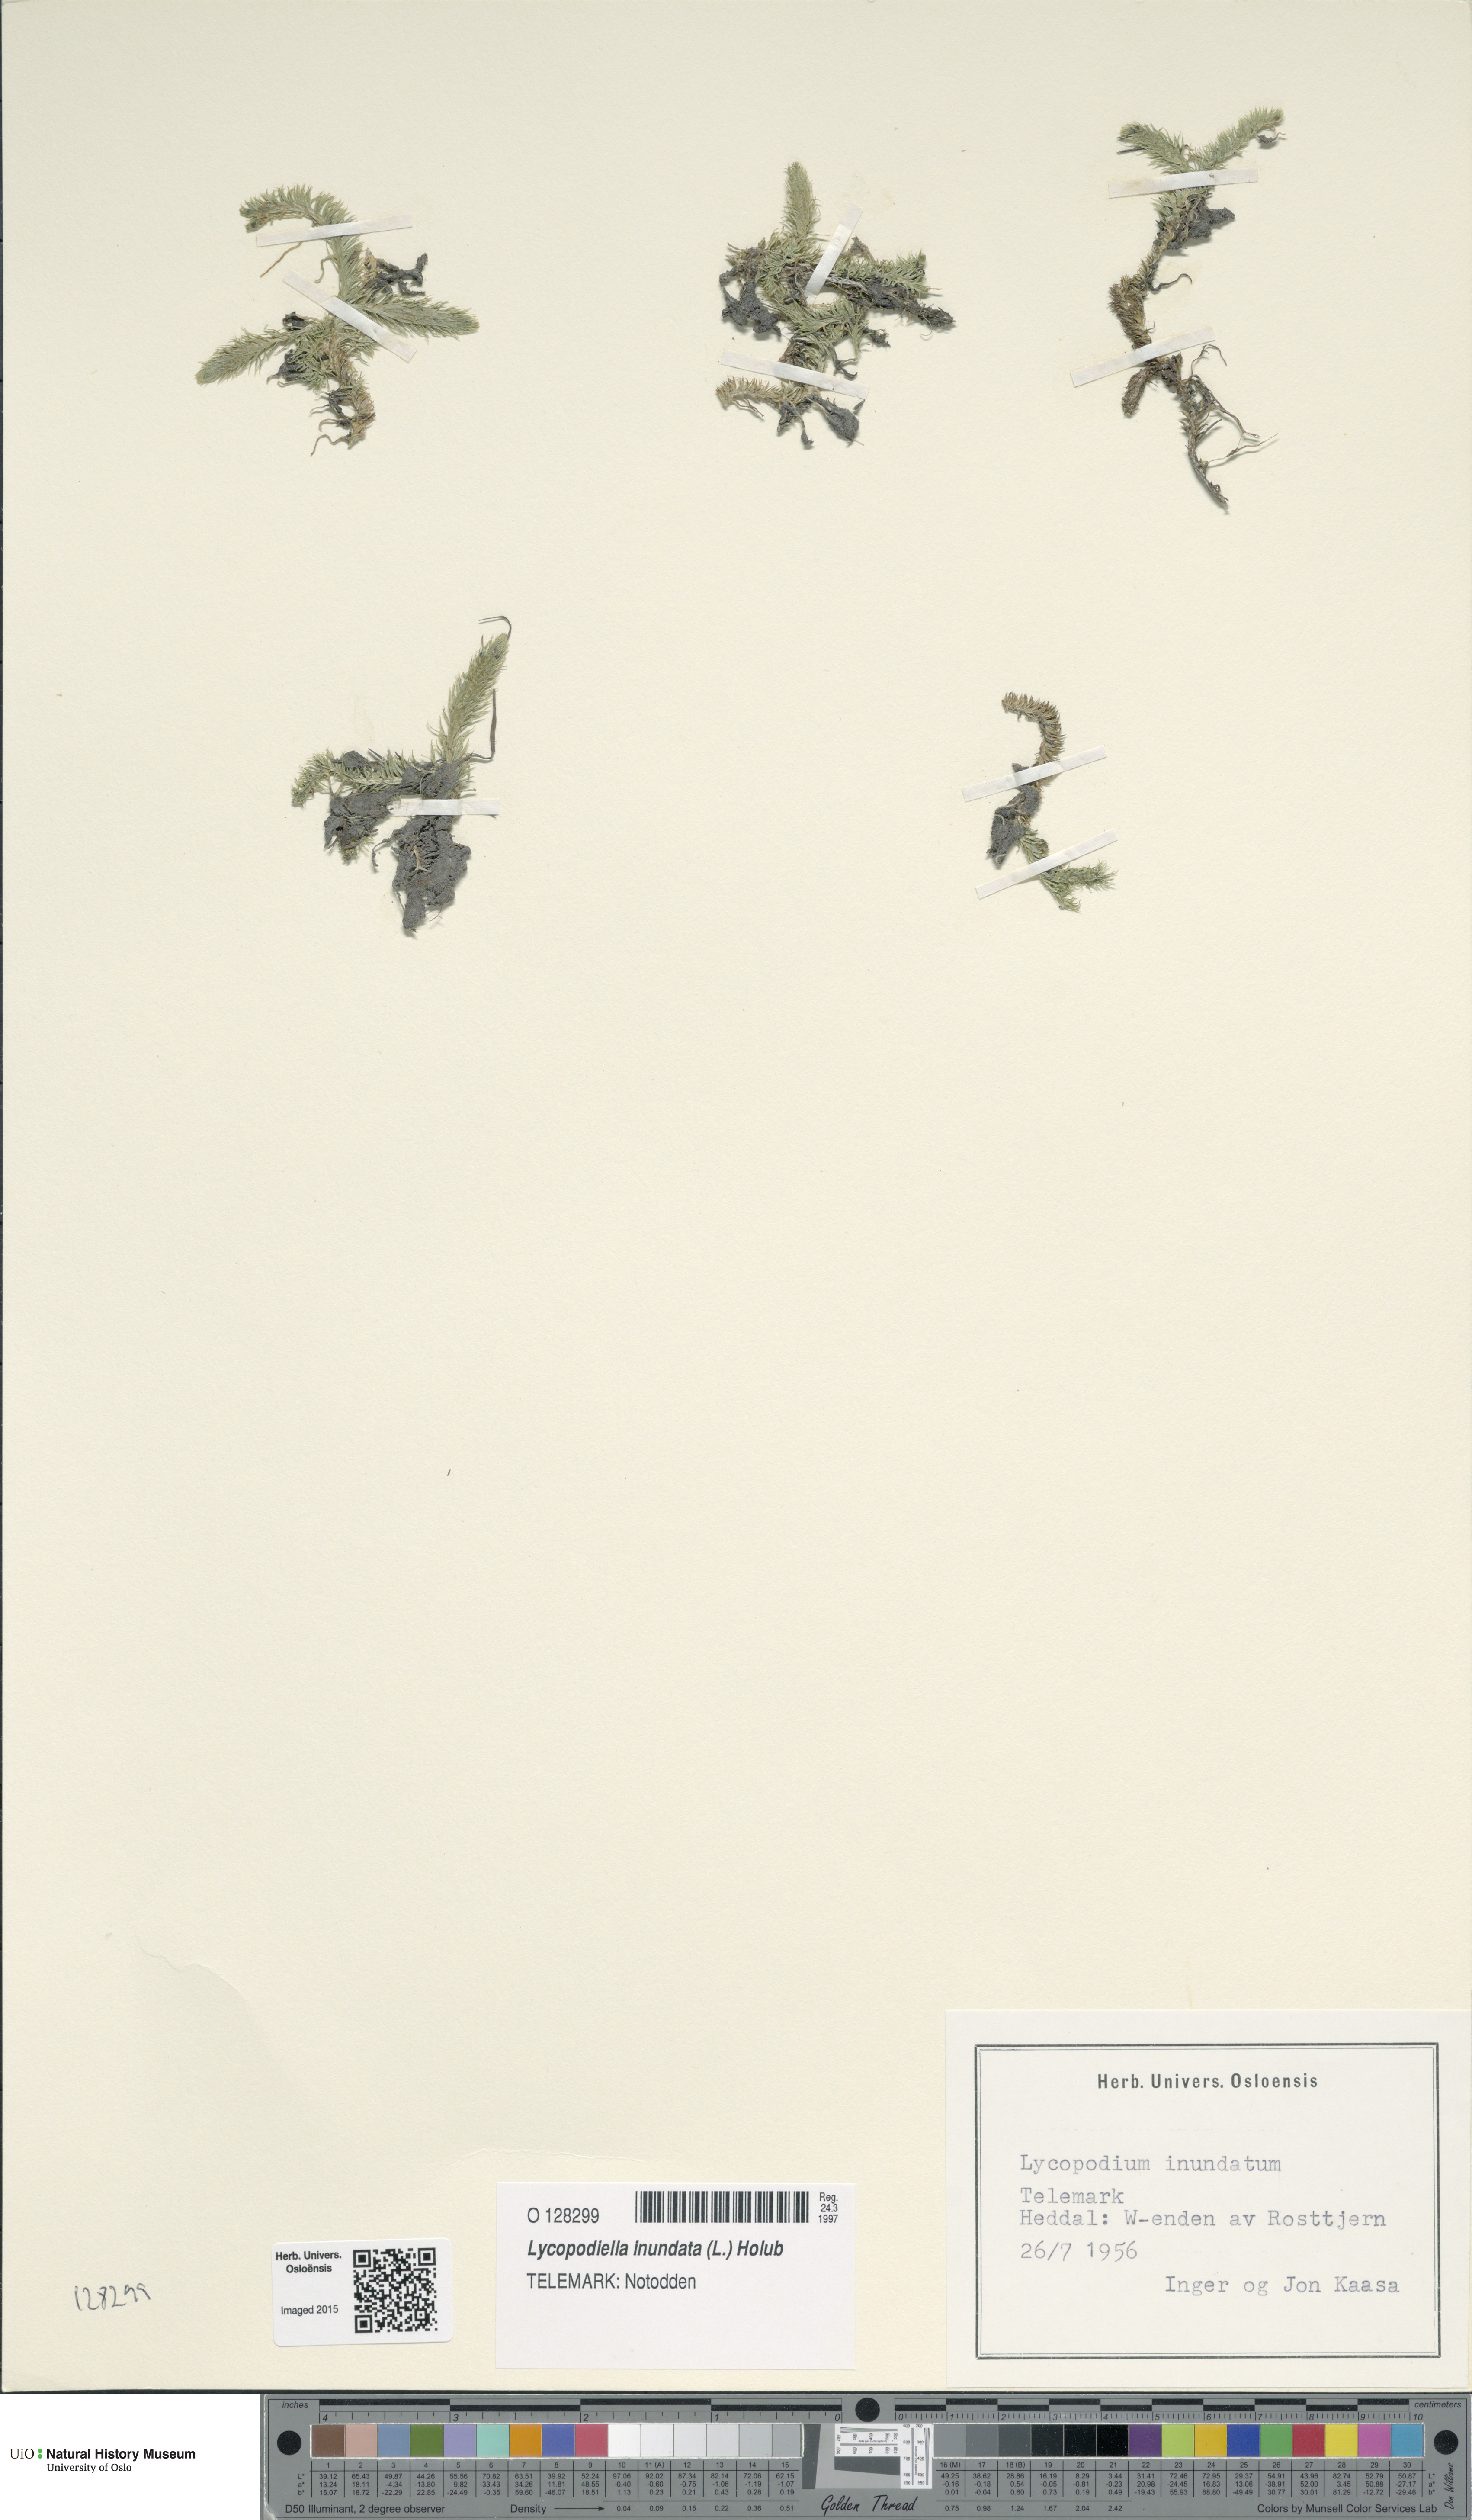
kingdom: Plantae
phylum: Tracheophyta
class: Lycopodiopsida
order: Lycopodiales
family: Lycopodiaceae
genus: Lycopodiella
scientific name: Lycopodiella inundata
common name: Marsh clubmoss
